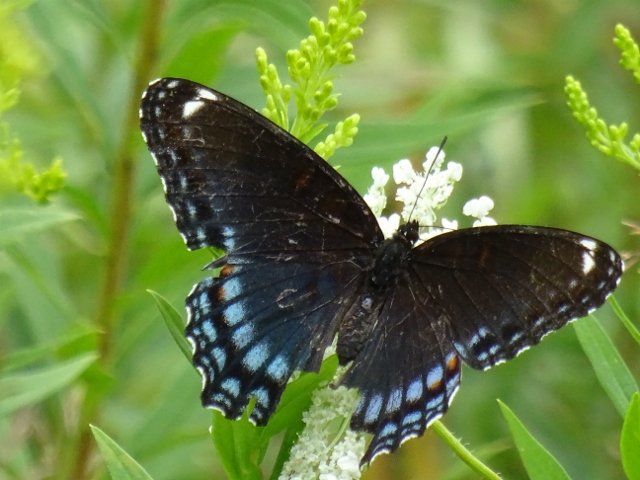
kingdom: Animalia
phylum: Arthropoda
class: Insecta
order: Lepidoptera
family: Nymphalidae
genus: Limenitis
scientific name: Limenitis astyanax
